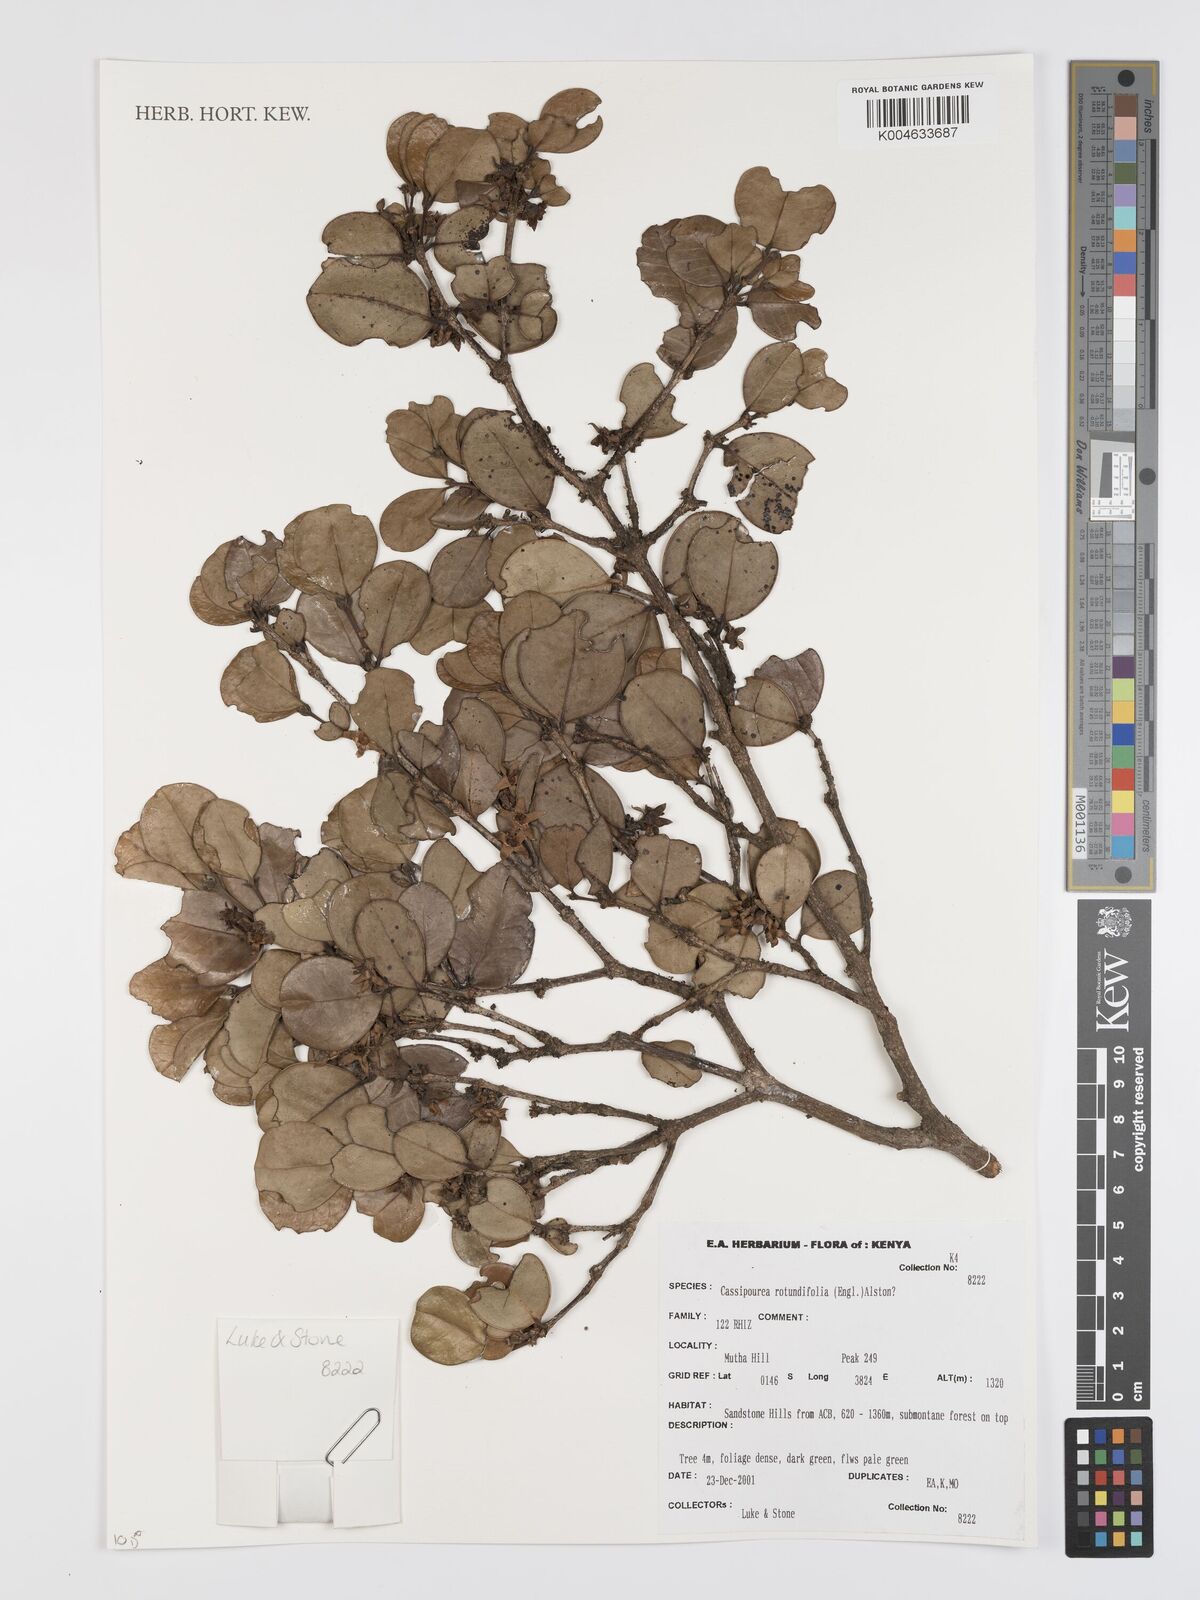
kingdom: Plantae
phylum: Tracheophyta
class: Magnoliopsida
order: Malpighiales
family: Rhizophoraceae
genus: Cassipourea
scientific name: Cassipourea rotundifolia
